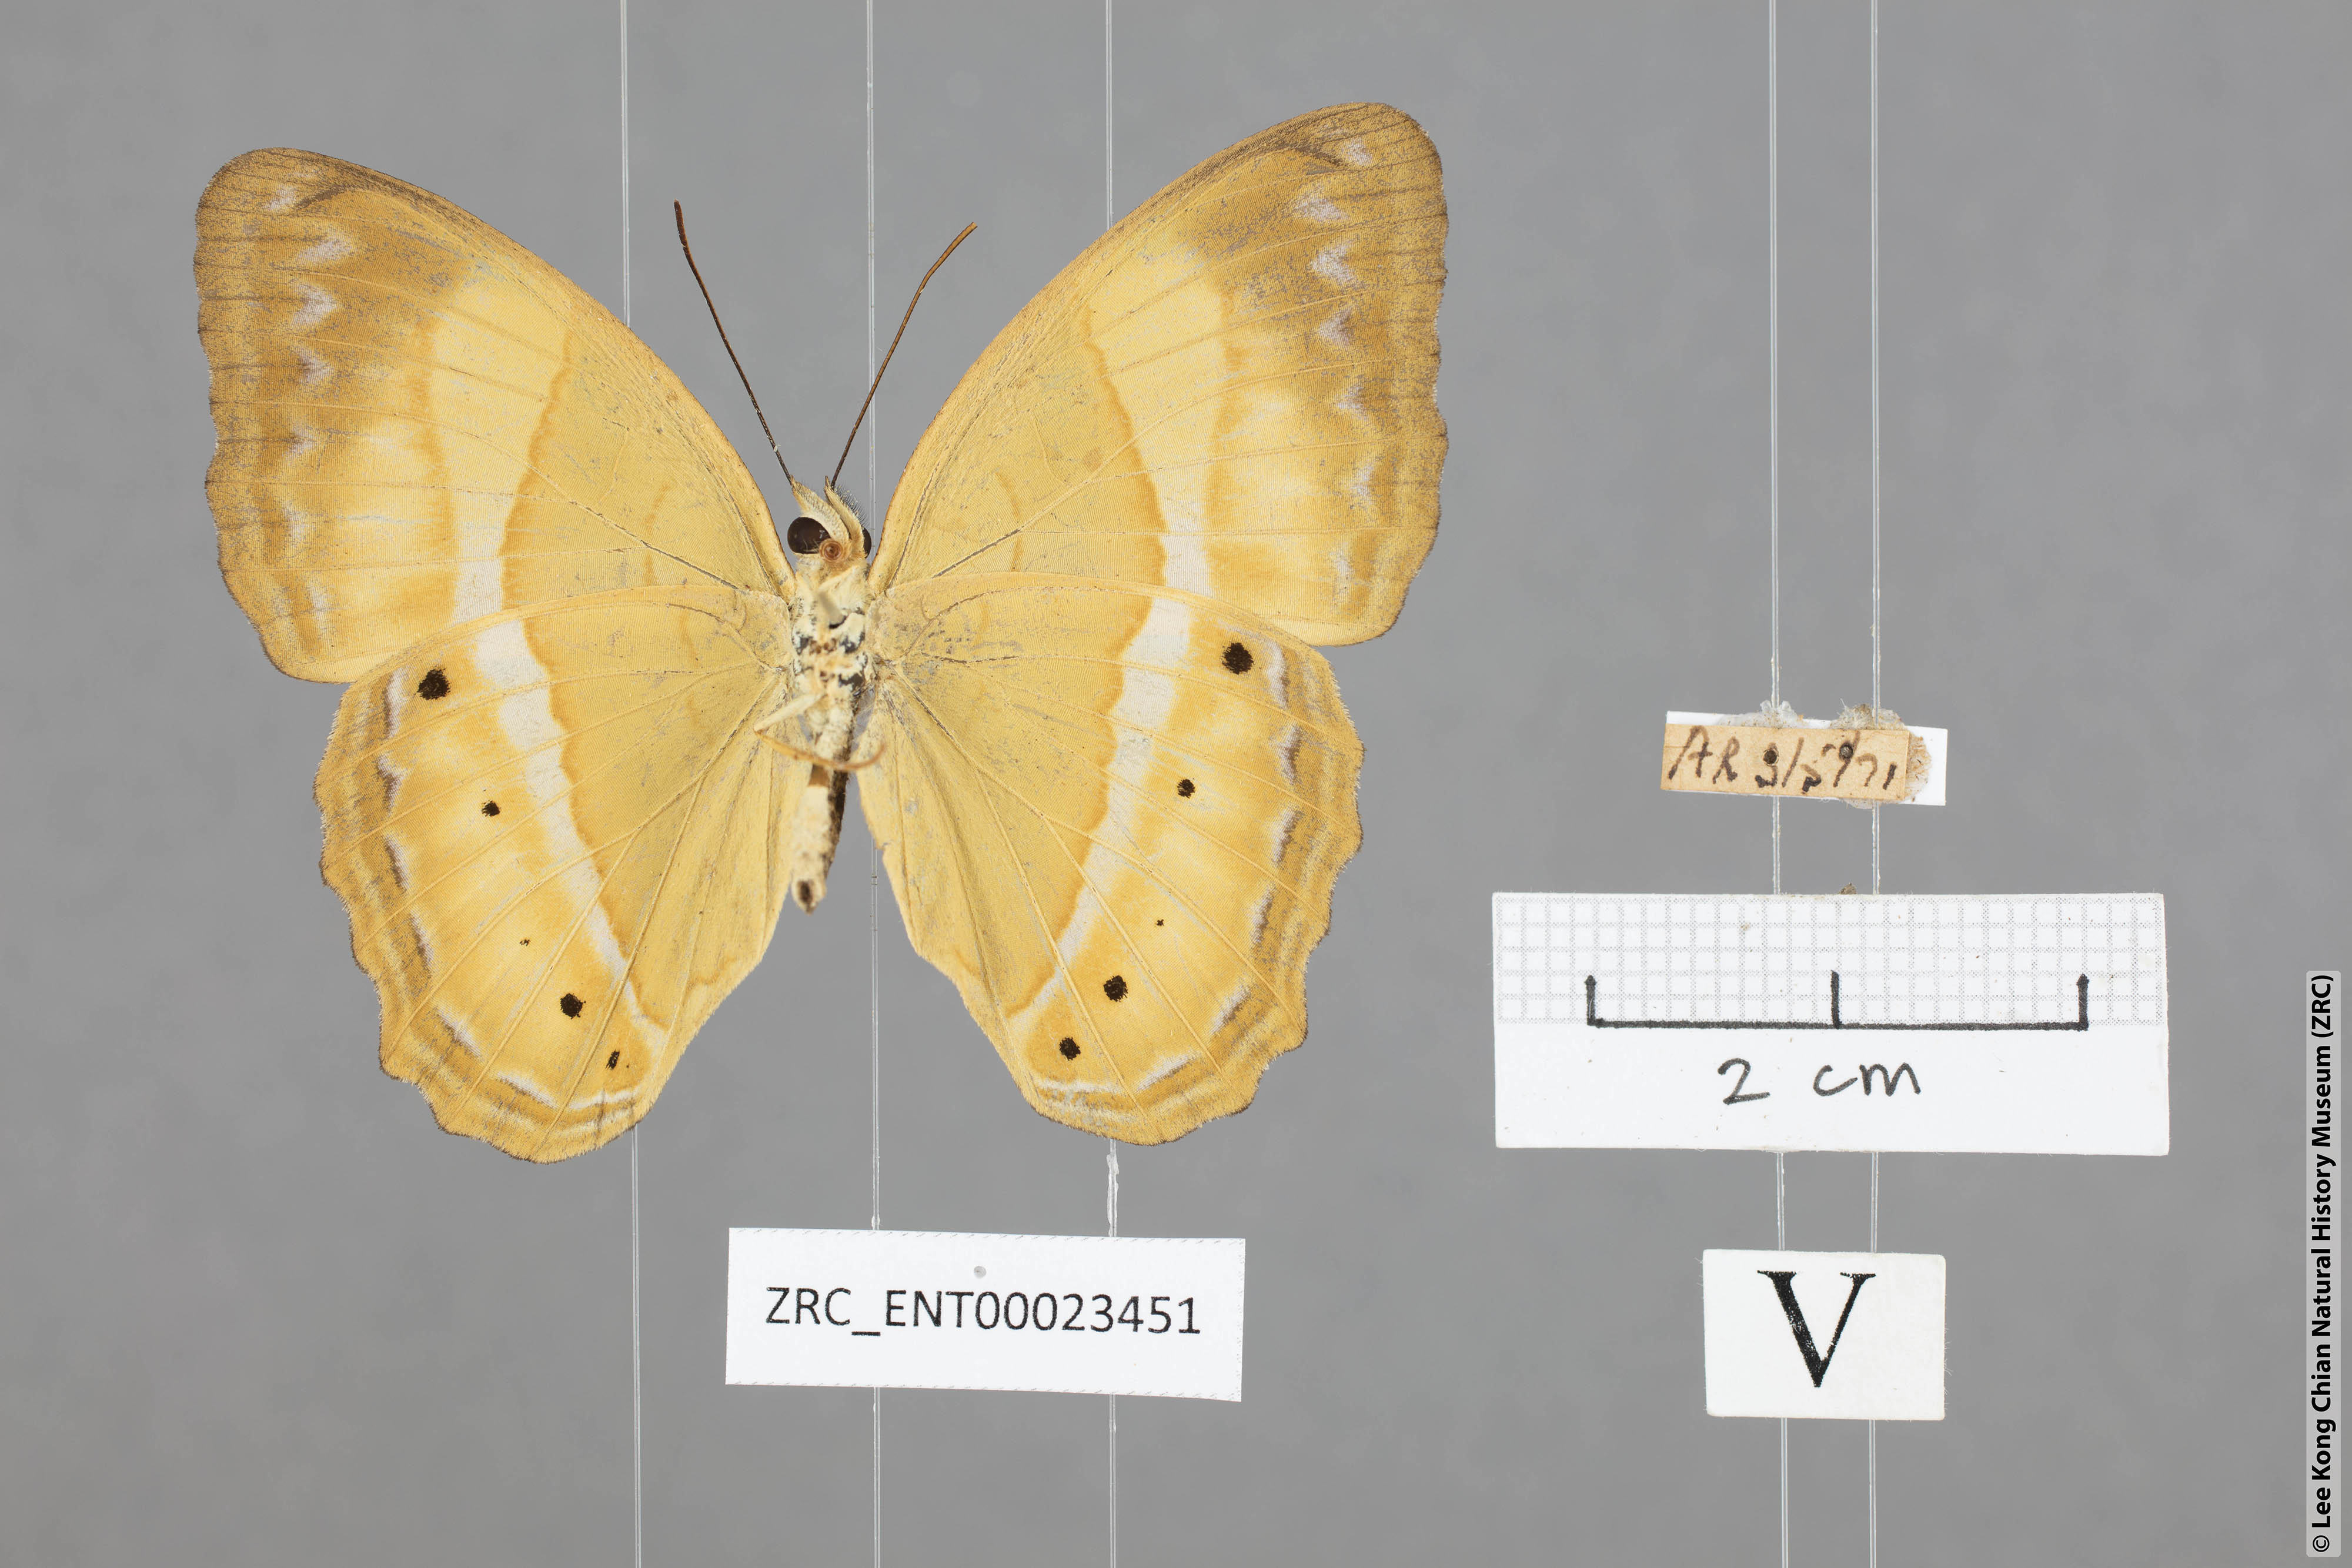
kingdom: Animalia
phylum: Arthropoda
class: Insecta
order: Lepidoptera
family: Nymphalidae
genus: Cirrochroa
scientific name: Cirrochroa satellita
